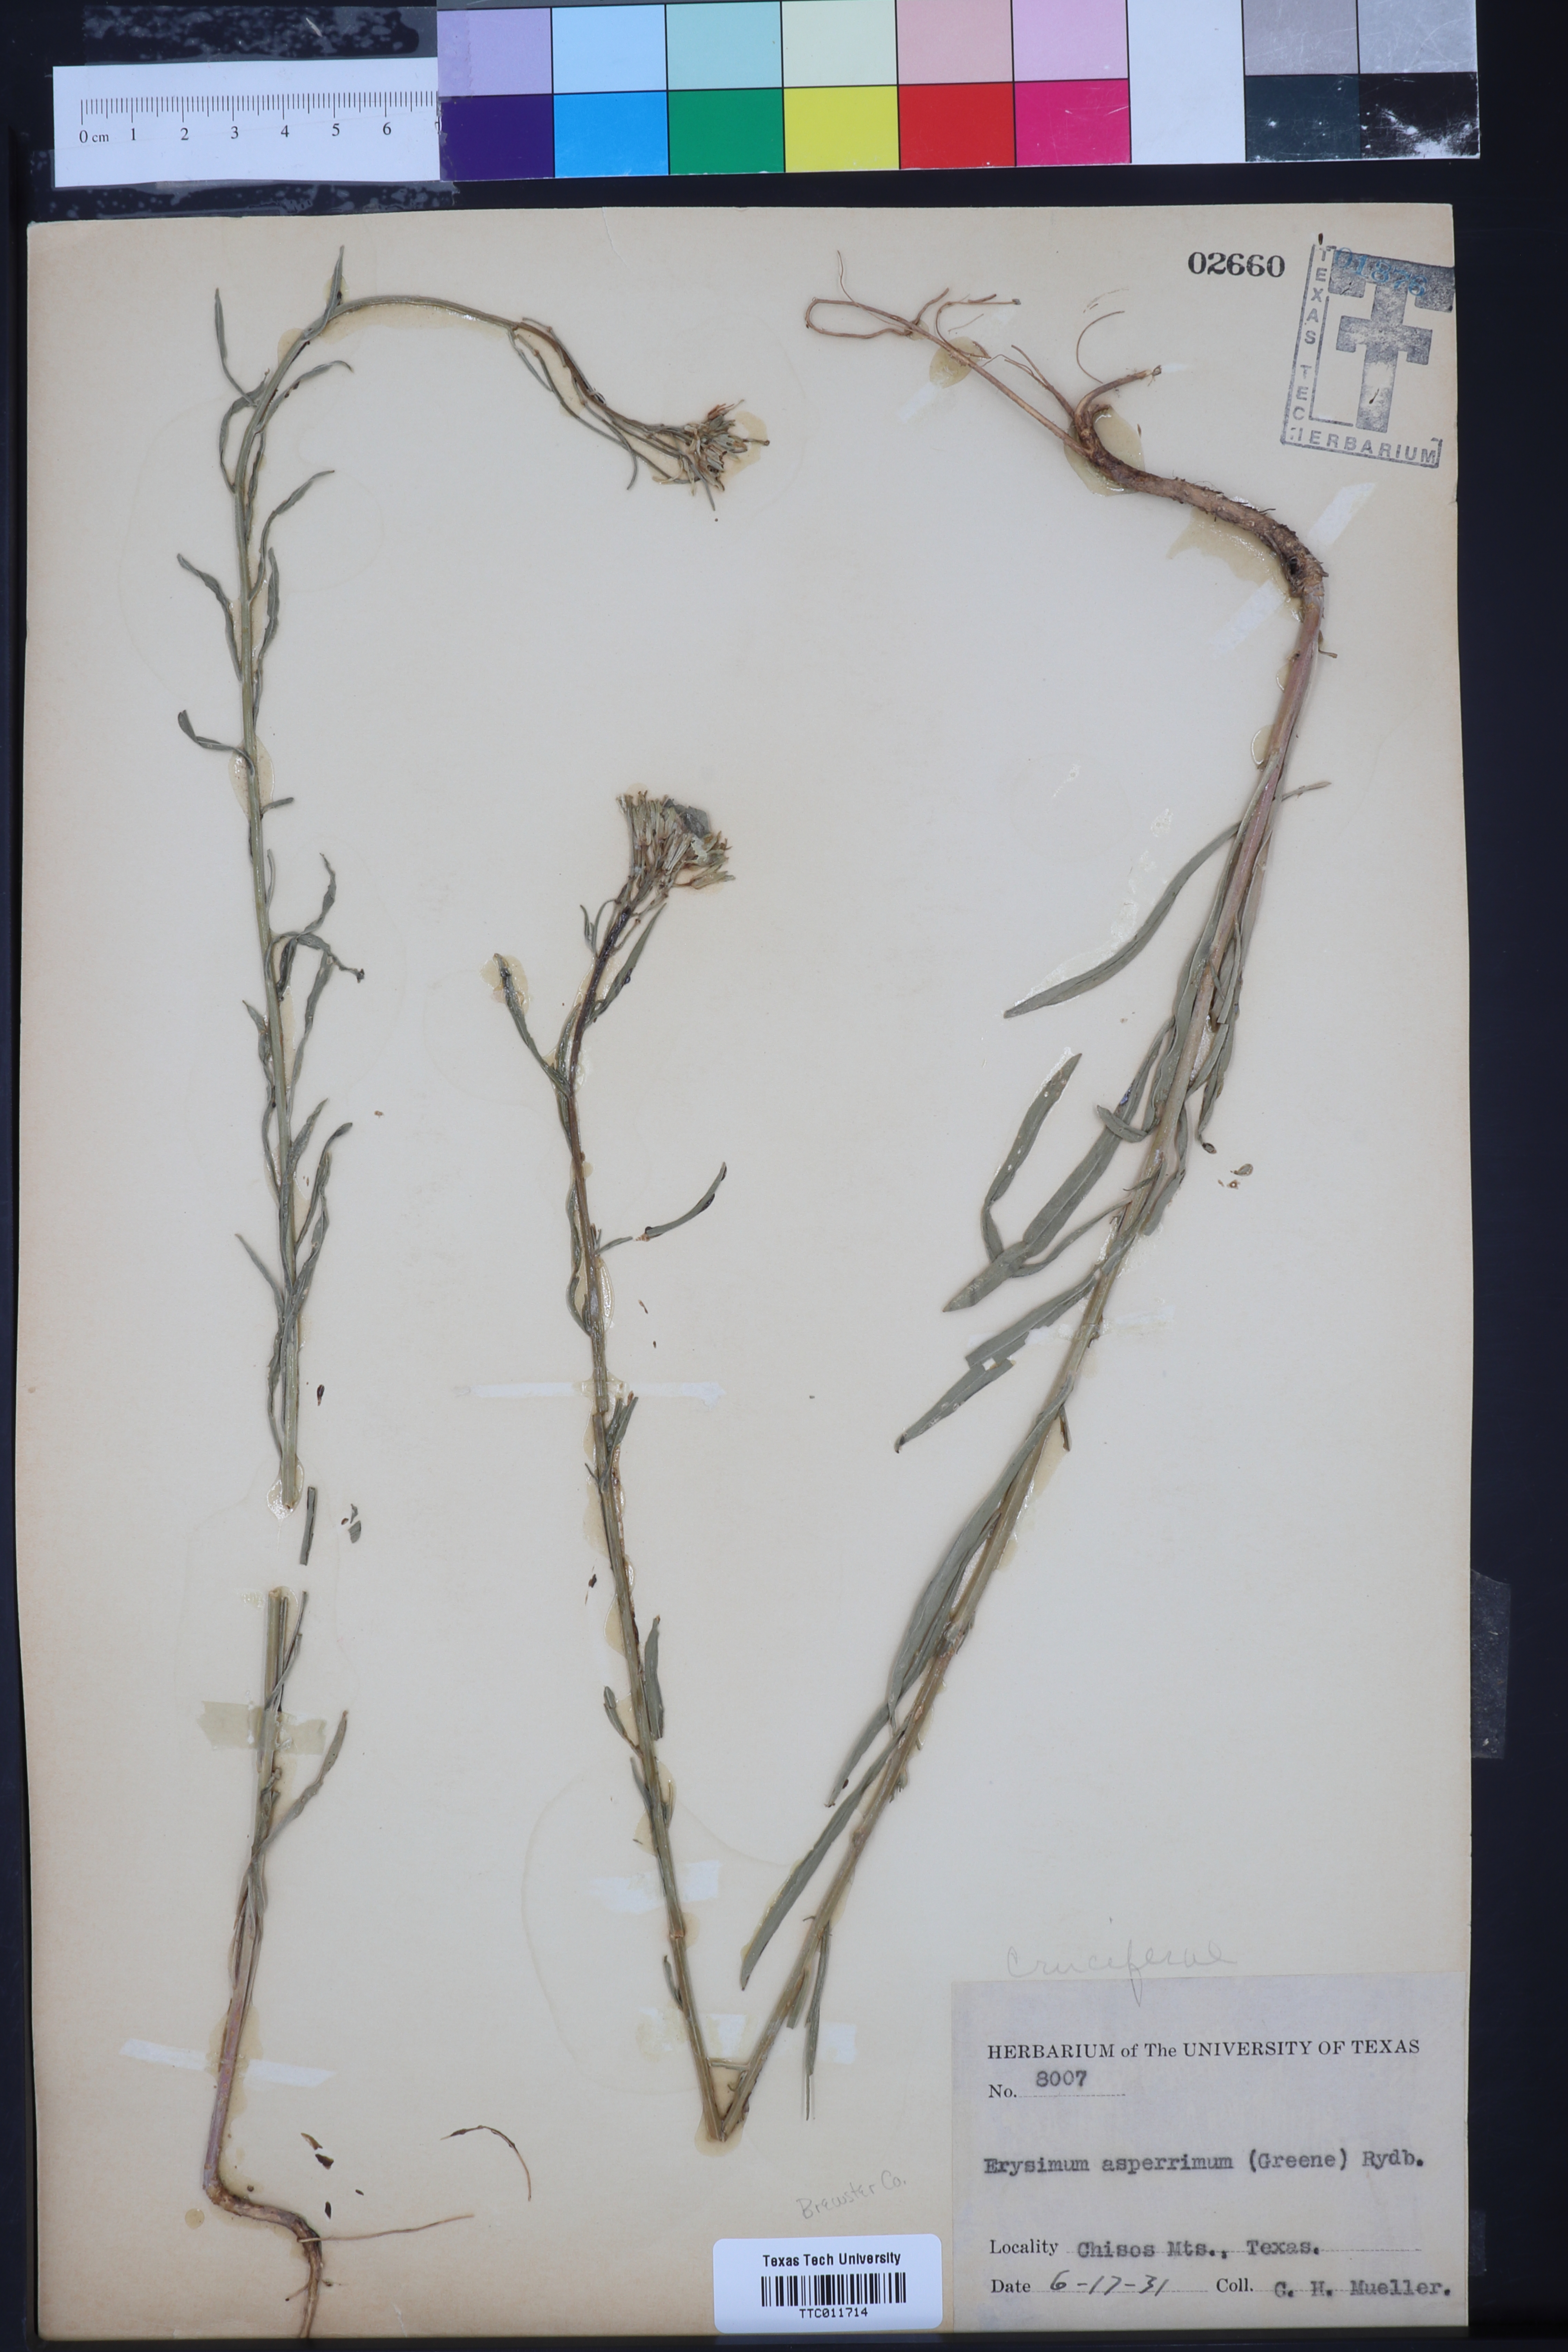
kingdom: Plantae
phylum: Tracheophyta
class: Magnoliopsida
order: Brassicales
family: Brassicaceae
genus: Erysimum
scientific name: Erysimum capitatum
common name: Western wallflower
